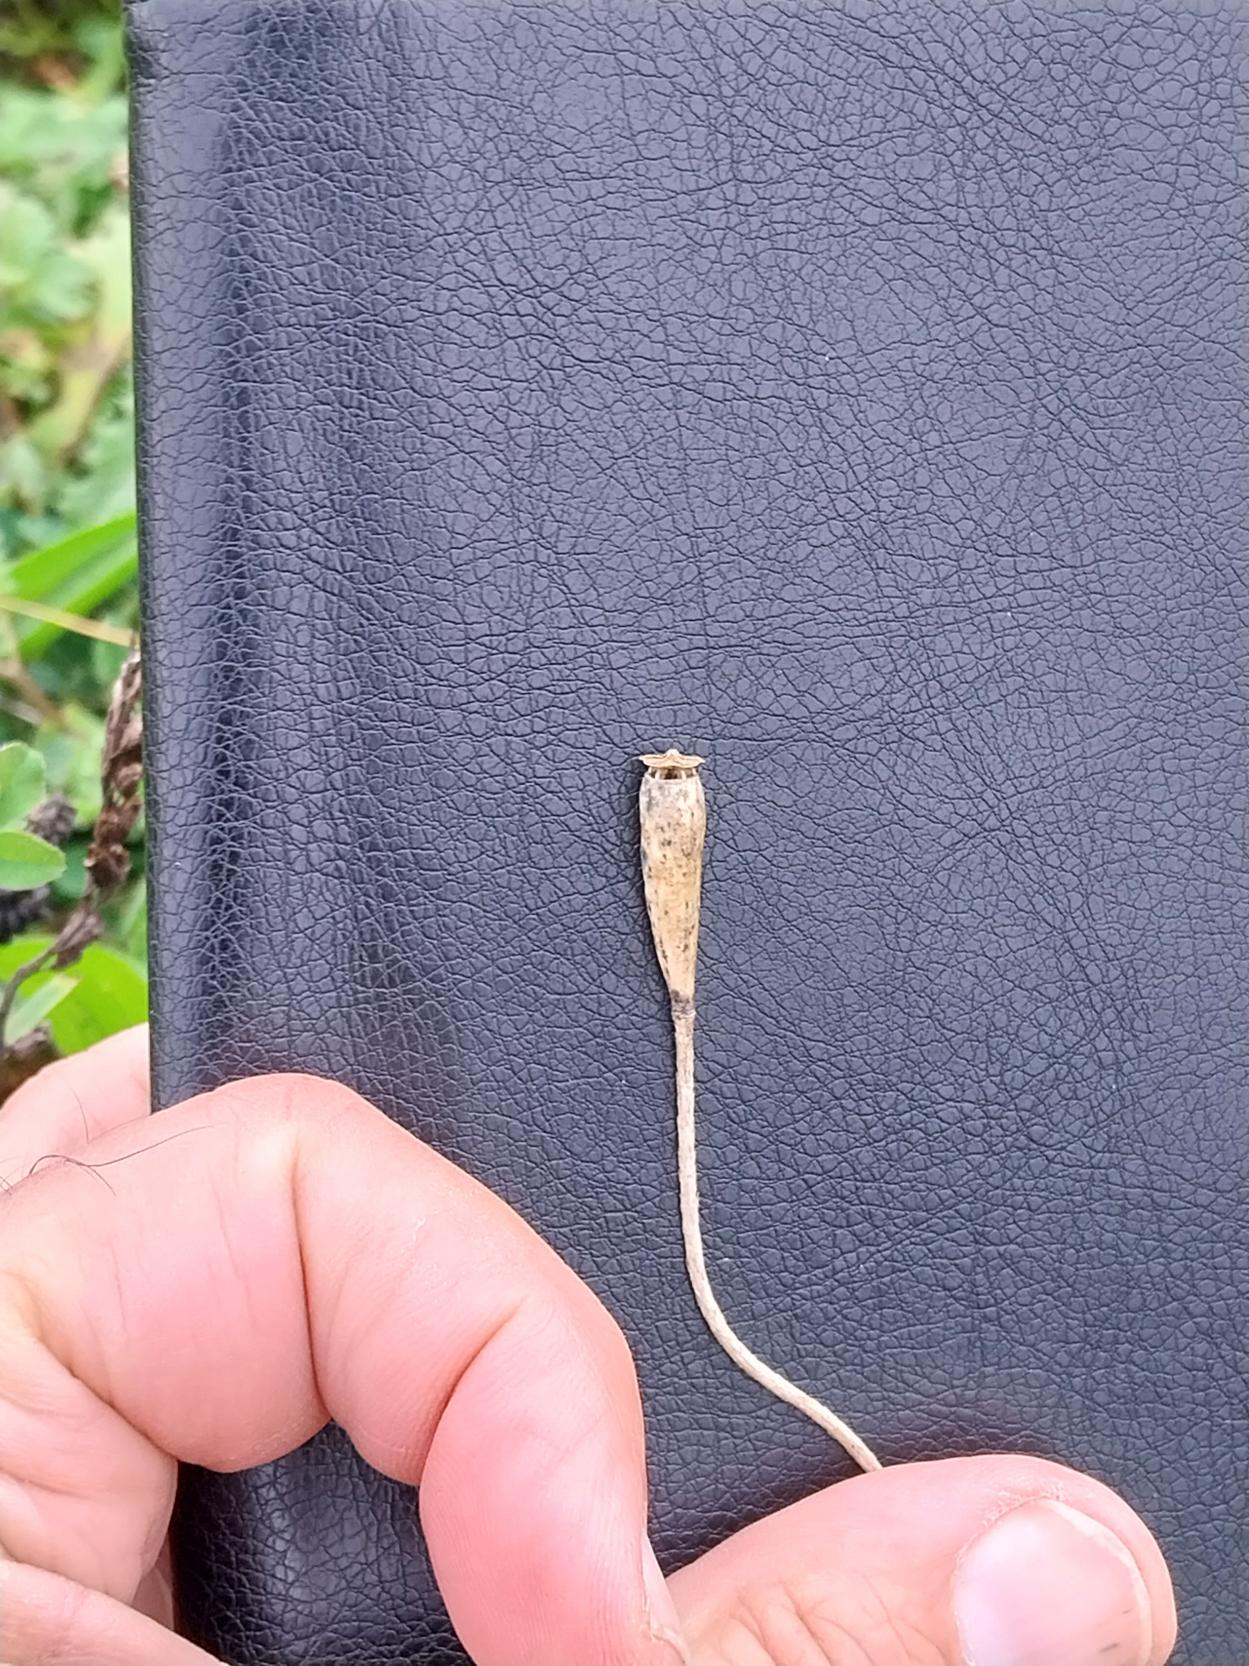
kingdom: Plantae
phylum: Tracheophyta
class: Magnoliopsida
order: Ranunculales
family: Papaveraceae
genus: Papaver
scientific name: Papaver dubium
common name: Gærde-valmue
